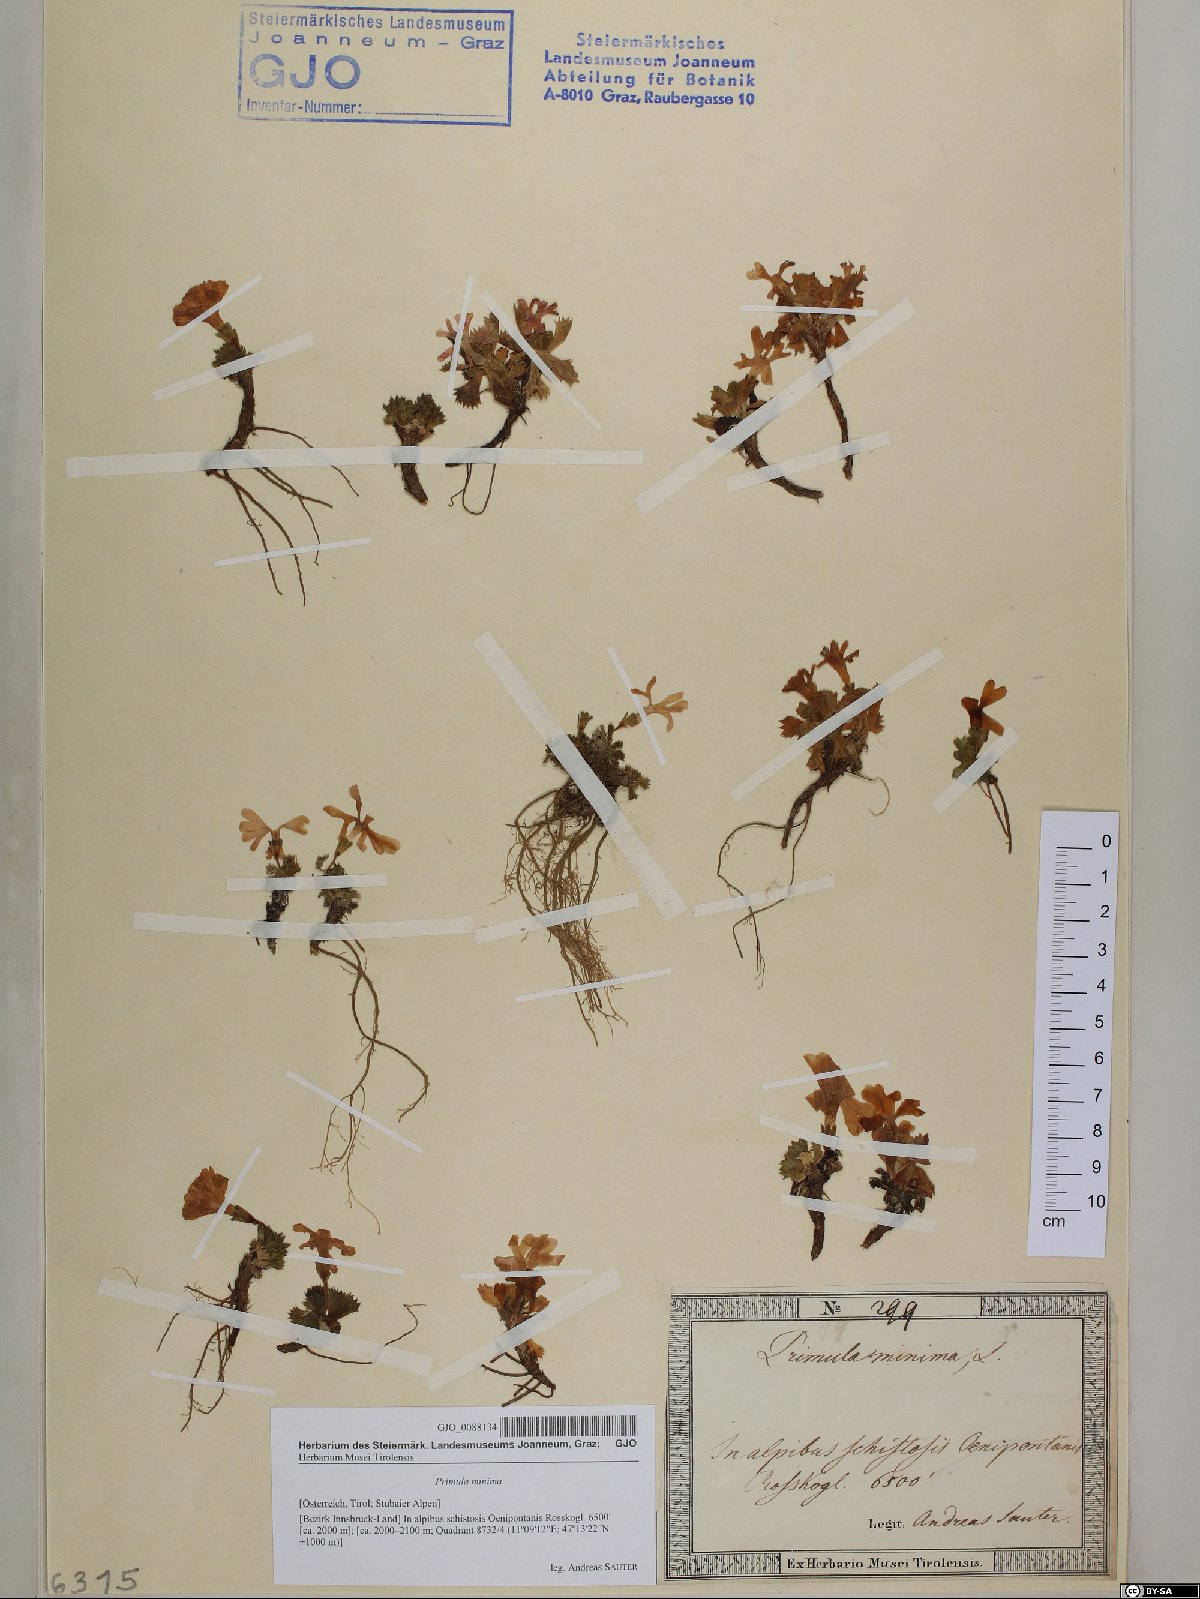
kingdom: Plantae
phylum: Tracheophyta
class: Magnoliopsida
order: Ericales
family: Primulaceae
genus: Primula
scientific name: Primula minima
